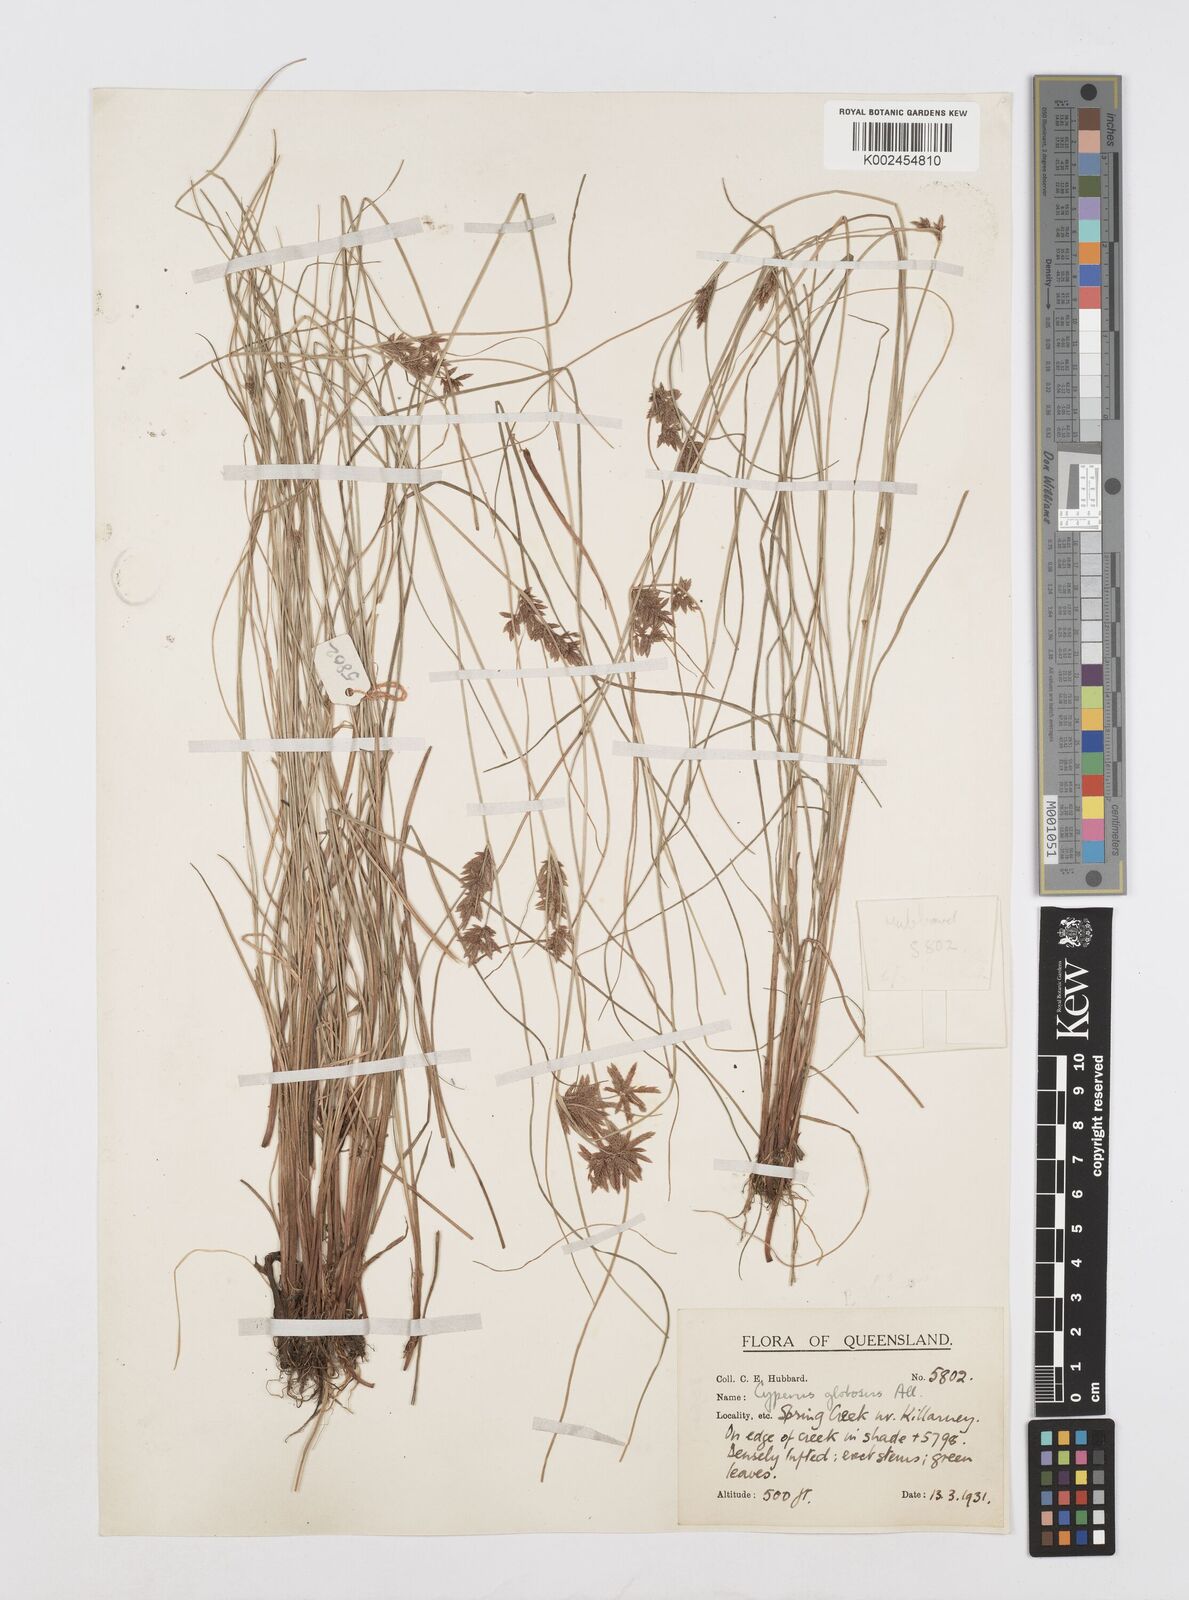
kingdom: Plantae
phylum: Tracheophyta
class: Liliopsida
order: Poales
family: Cyperaceae
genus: Cyperus
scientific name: Cyperus flavidus
